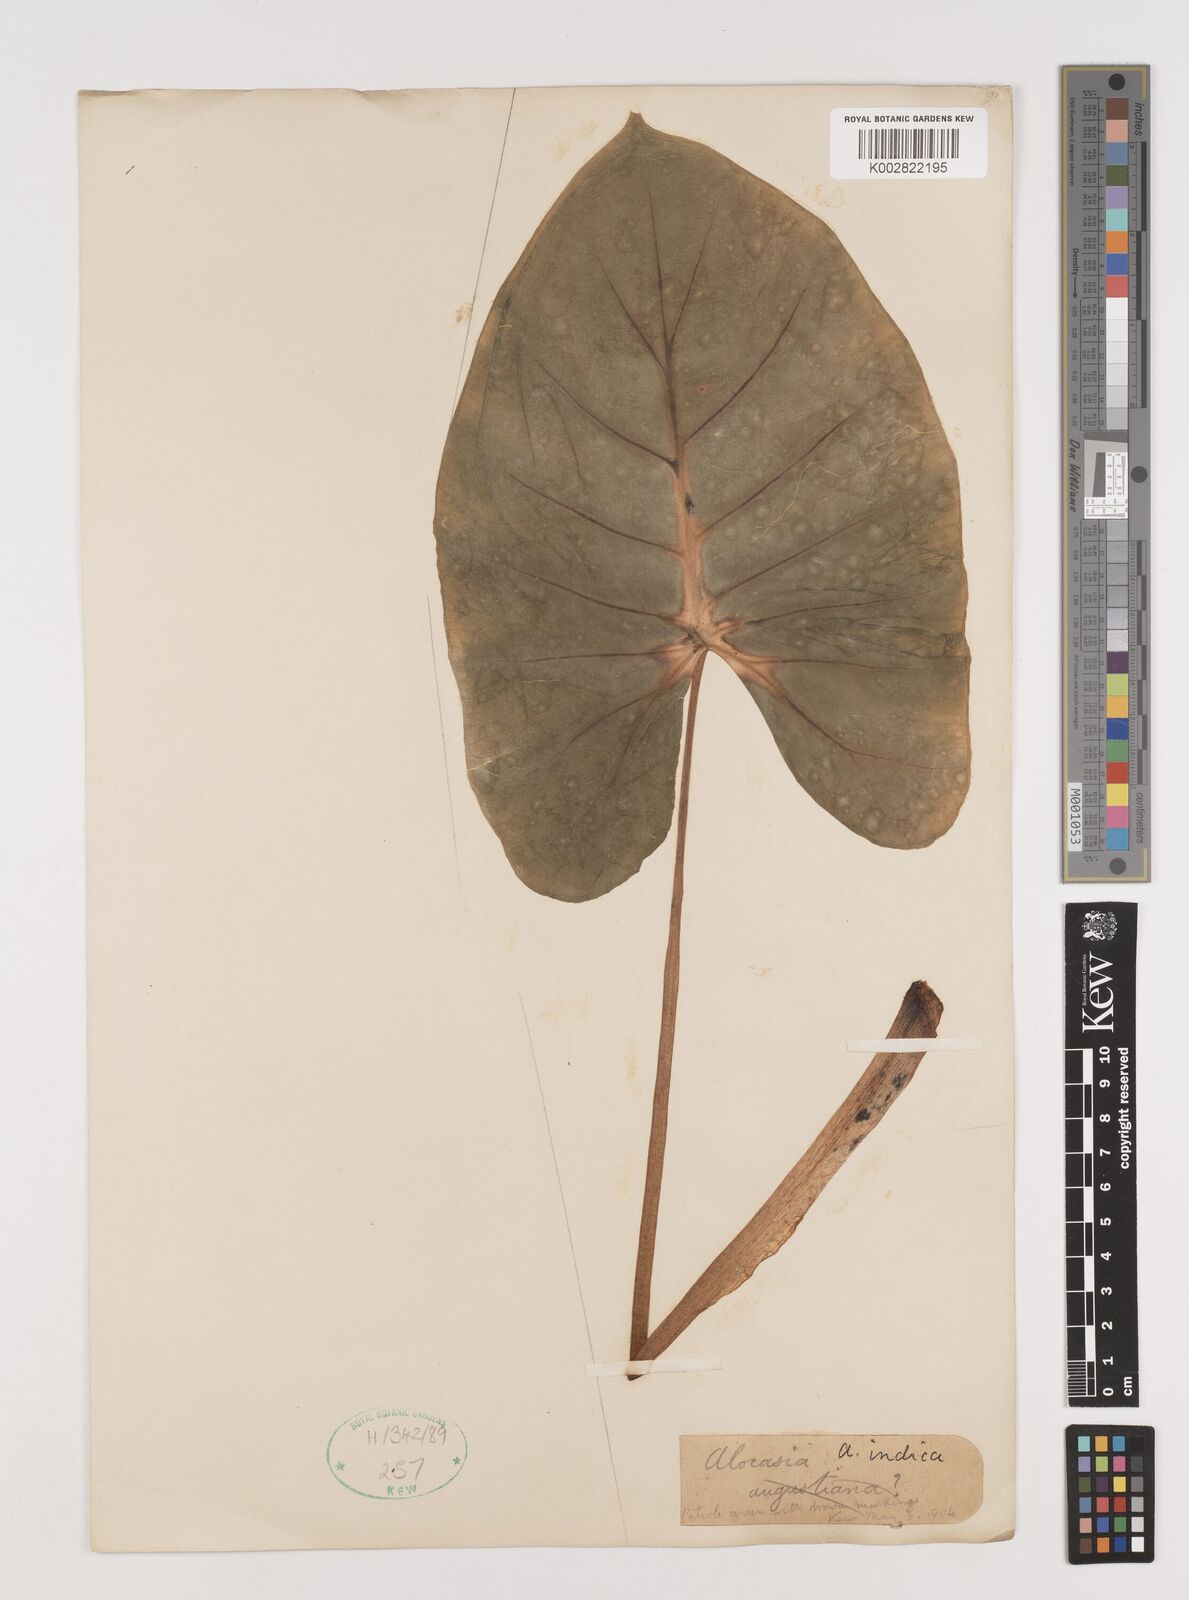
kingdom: Plantae
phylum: Tracheophyta
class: Liliopsida
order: Alismatales
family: Araceae
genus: Alocasia
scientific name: Alocasia macrorrhizos
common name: Giant taro
